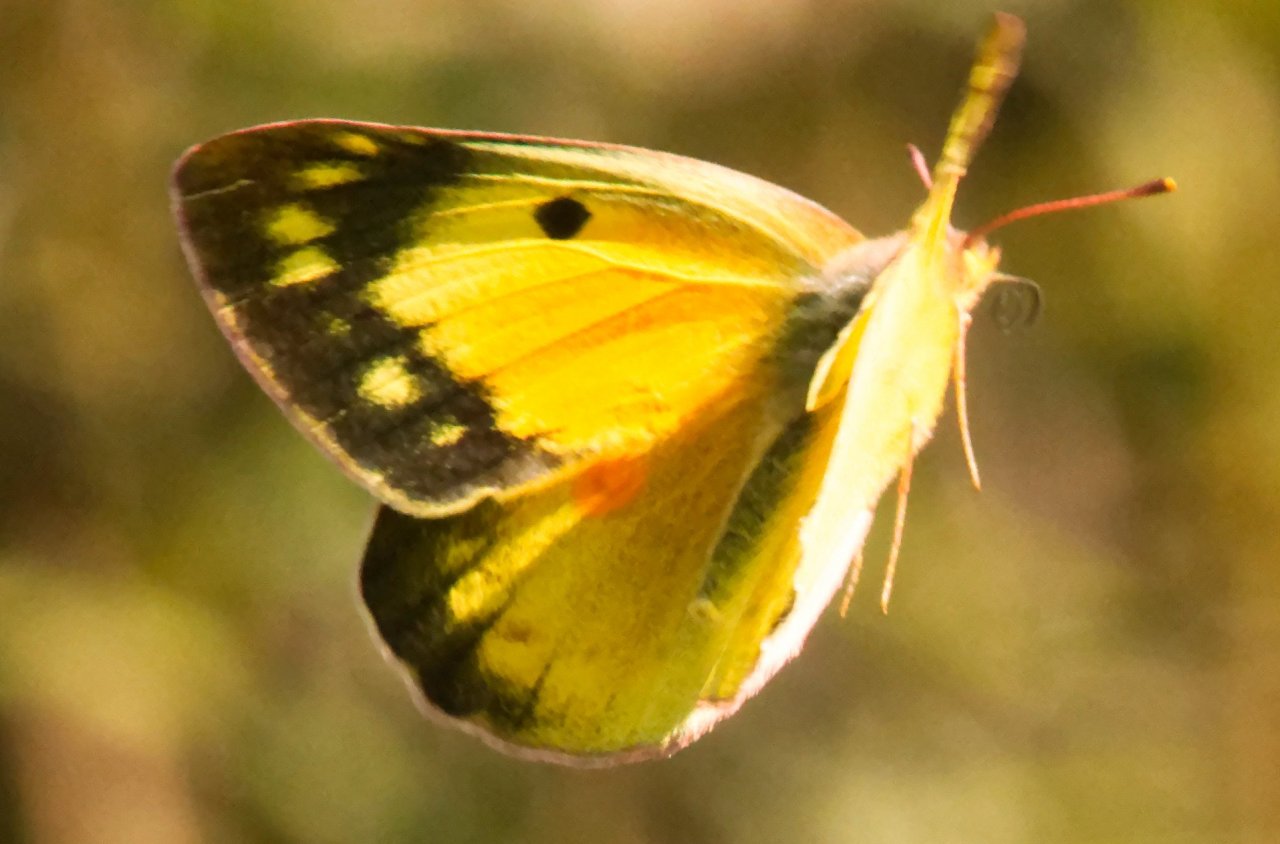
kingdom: Animalia
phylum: Arthropoda
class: Insecta
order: Lepidoptera
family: Pieridae
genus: Colias
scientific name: Colias eurytheme
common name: Orange Sulphur
